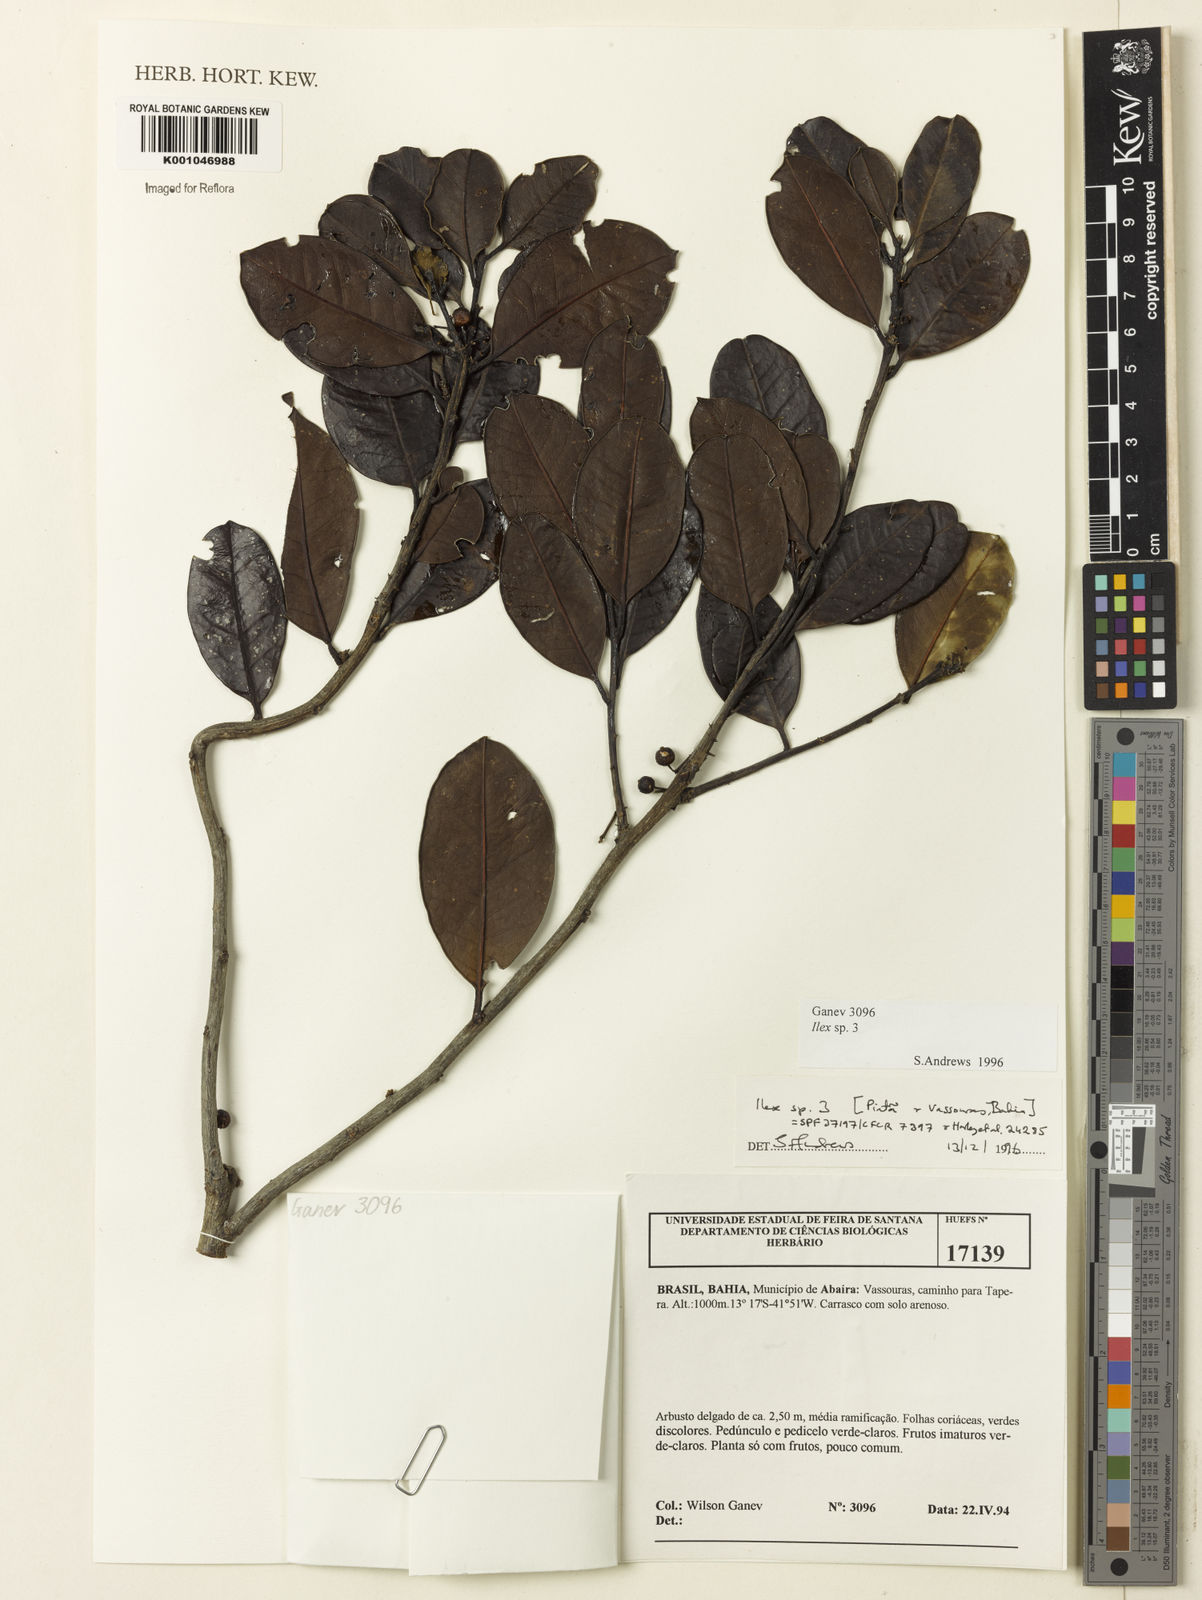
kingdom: Plantae
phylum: Tracheophyta
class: Magnoliopsida
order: Aquifoliales
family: Aquifoliaceae
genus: Ilex
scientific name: Ilex
